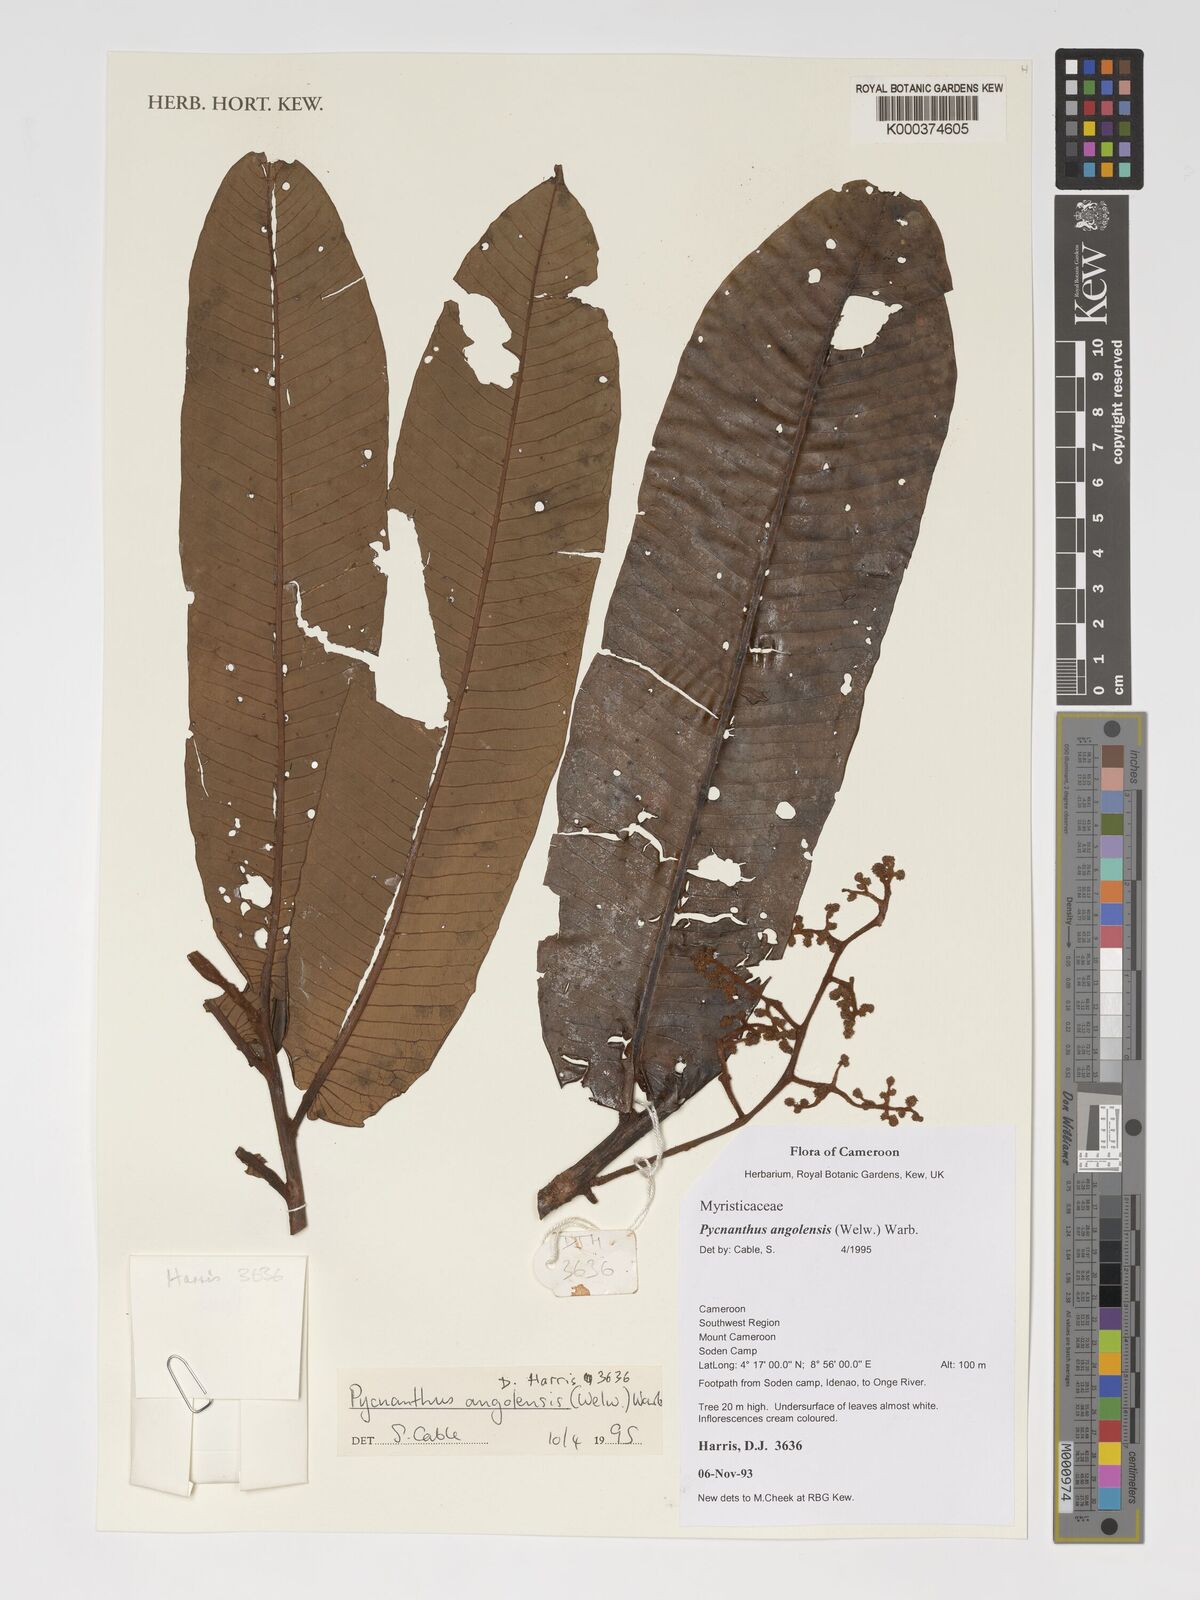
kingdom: Plantae
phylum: Tracheophyta
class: Magnoliopsida
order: Magnoliales
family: Myristicaceae
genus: Pycnanthus
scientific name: Pycnanthus angolensis
